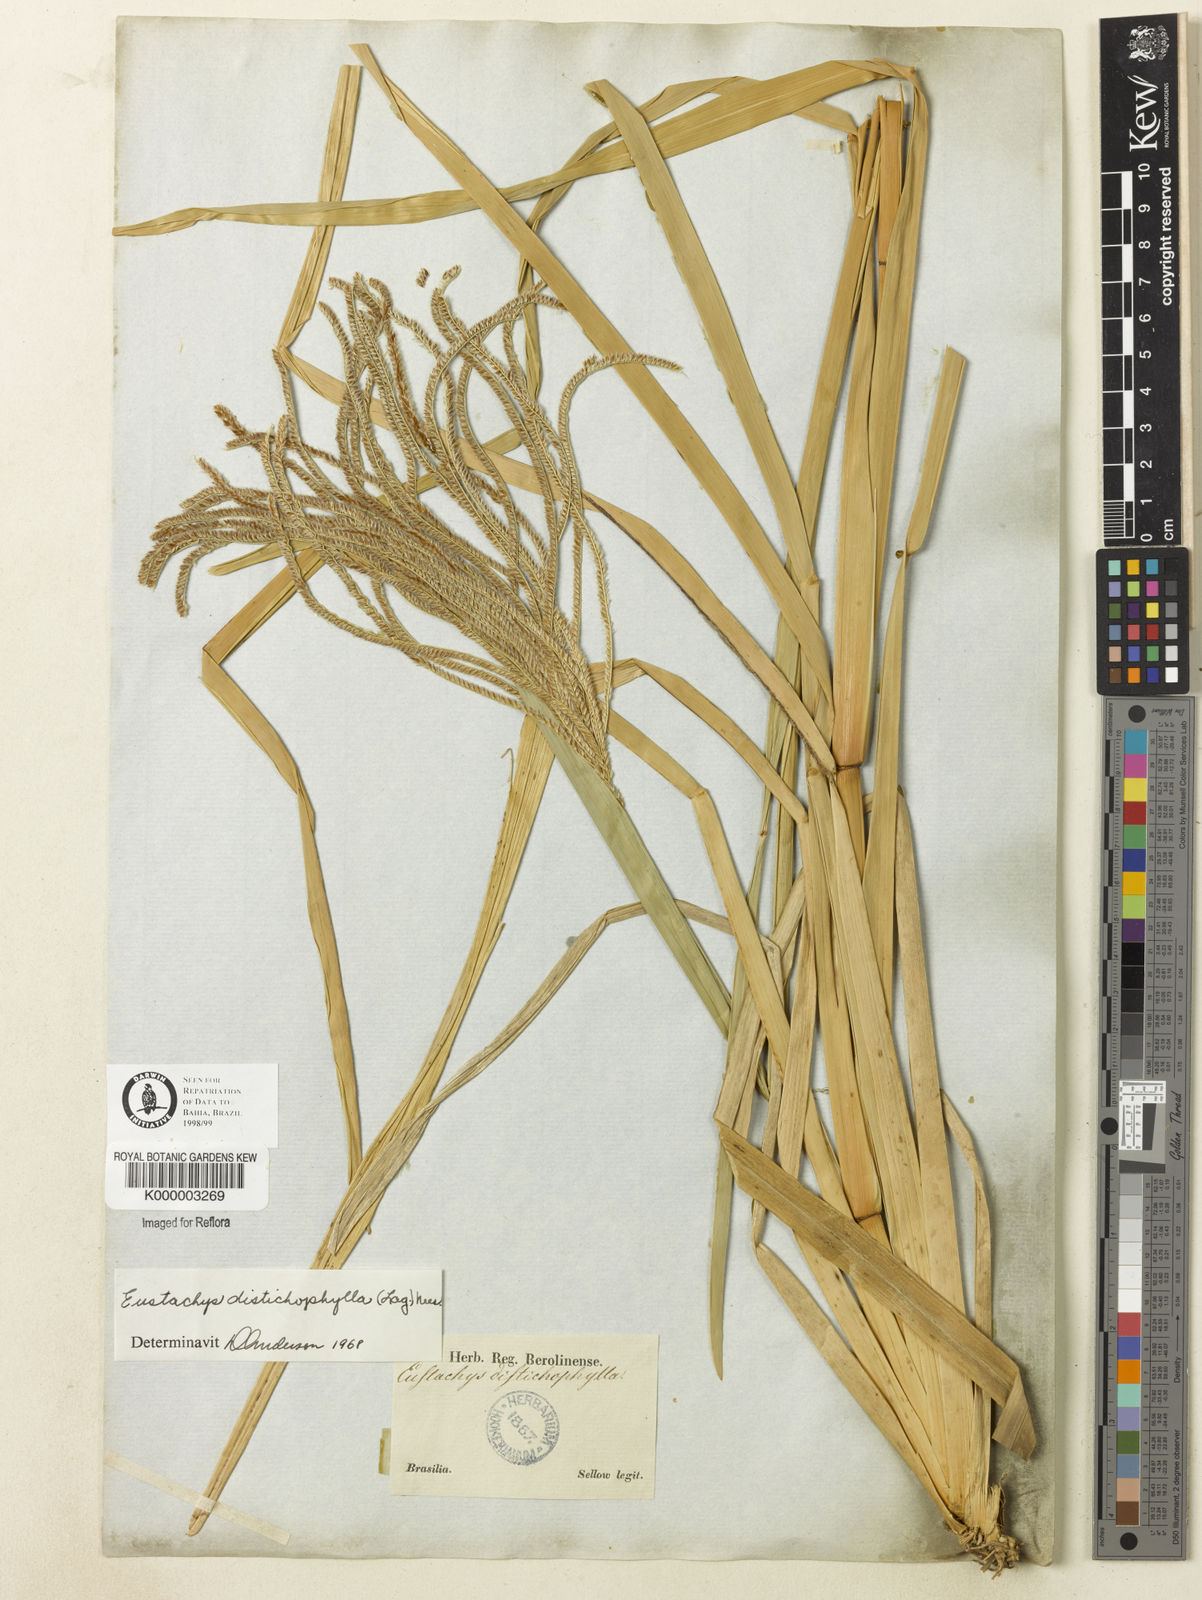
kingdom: Plantae
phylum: Tracheophyta
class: Liliopsida
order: Poales
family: Poaceae
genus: Eustachys
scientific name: Eustachys distichophylla
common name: Weeping fingergrass
